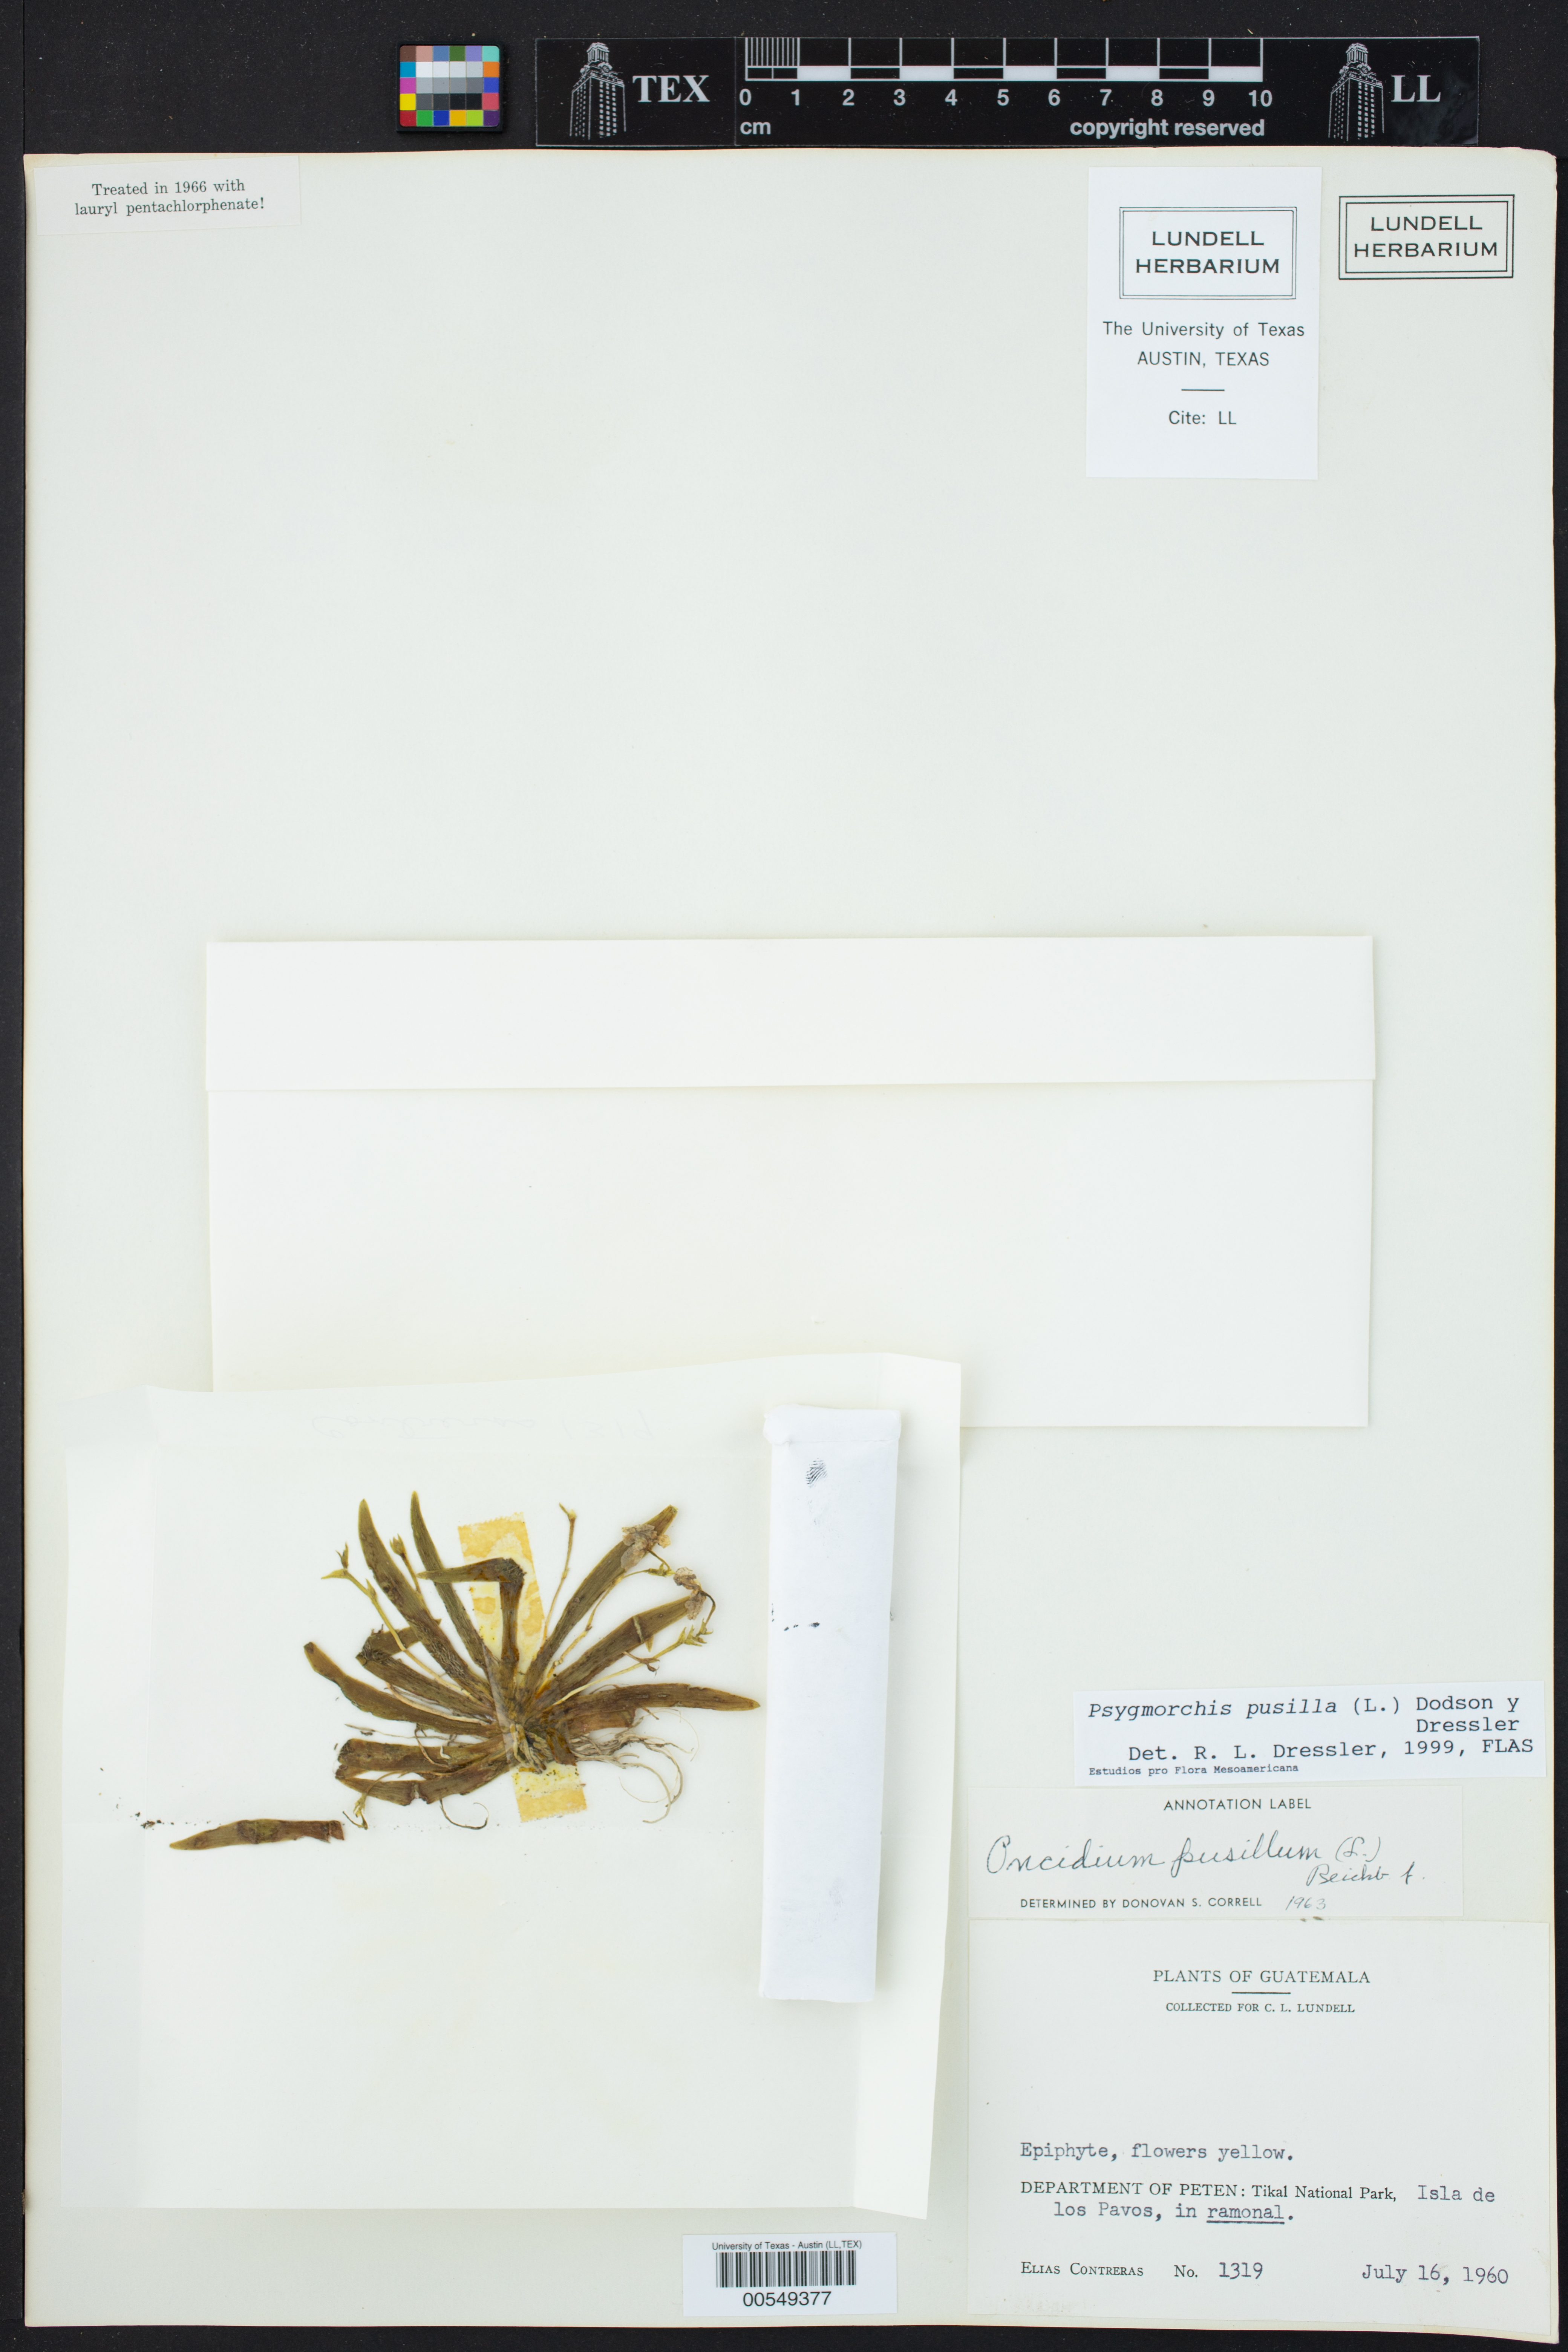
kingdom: Plantae
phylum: Tracheophyta
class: Liliopsida
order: Asparagales
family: Orchidaceae
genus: Erycina
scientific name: Erycina pusilla
